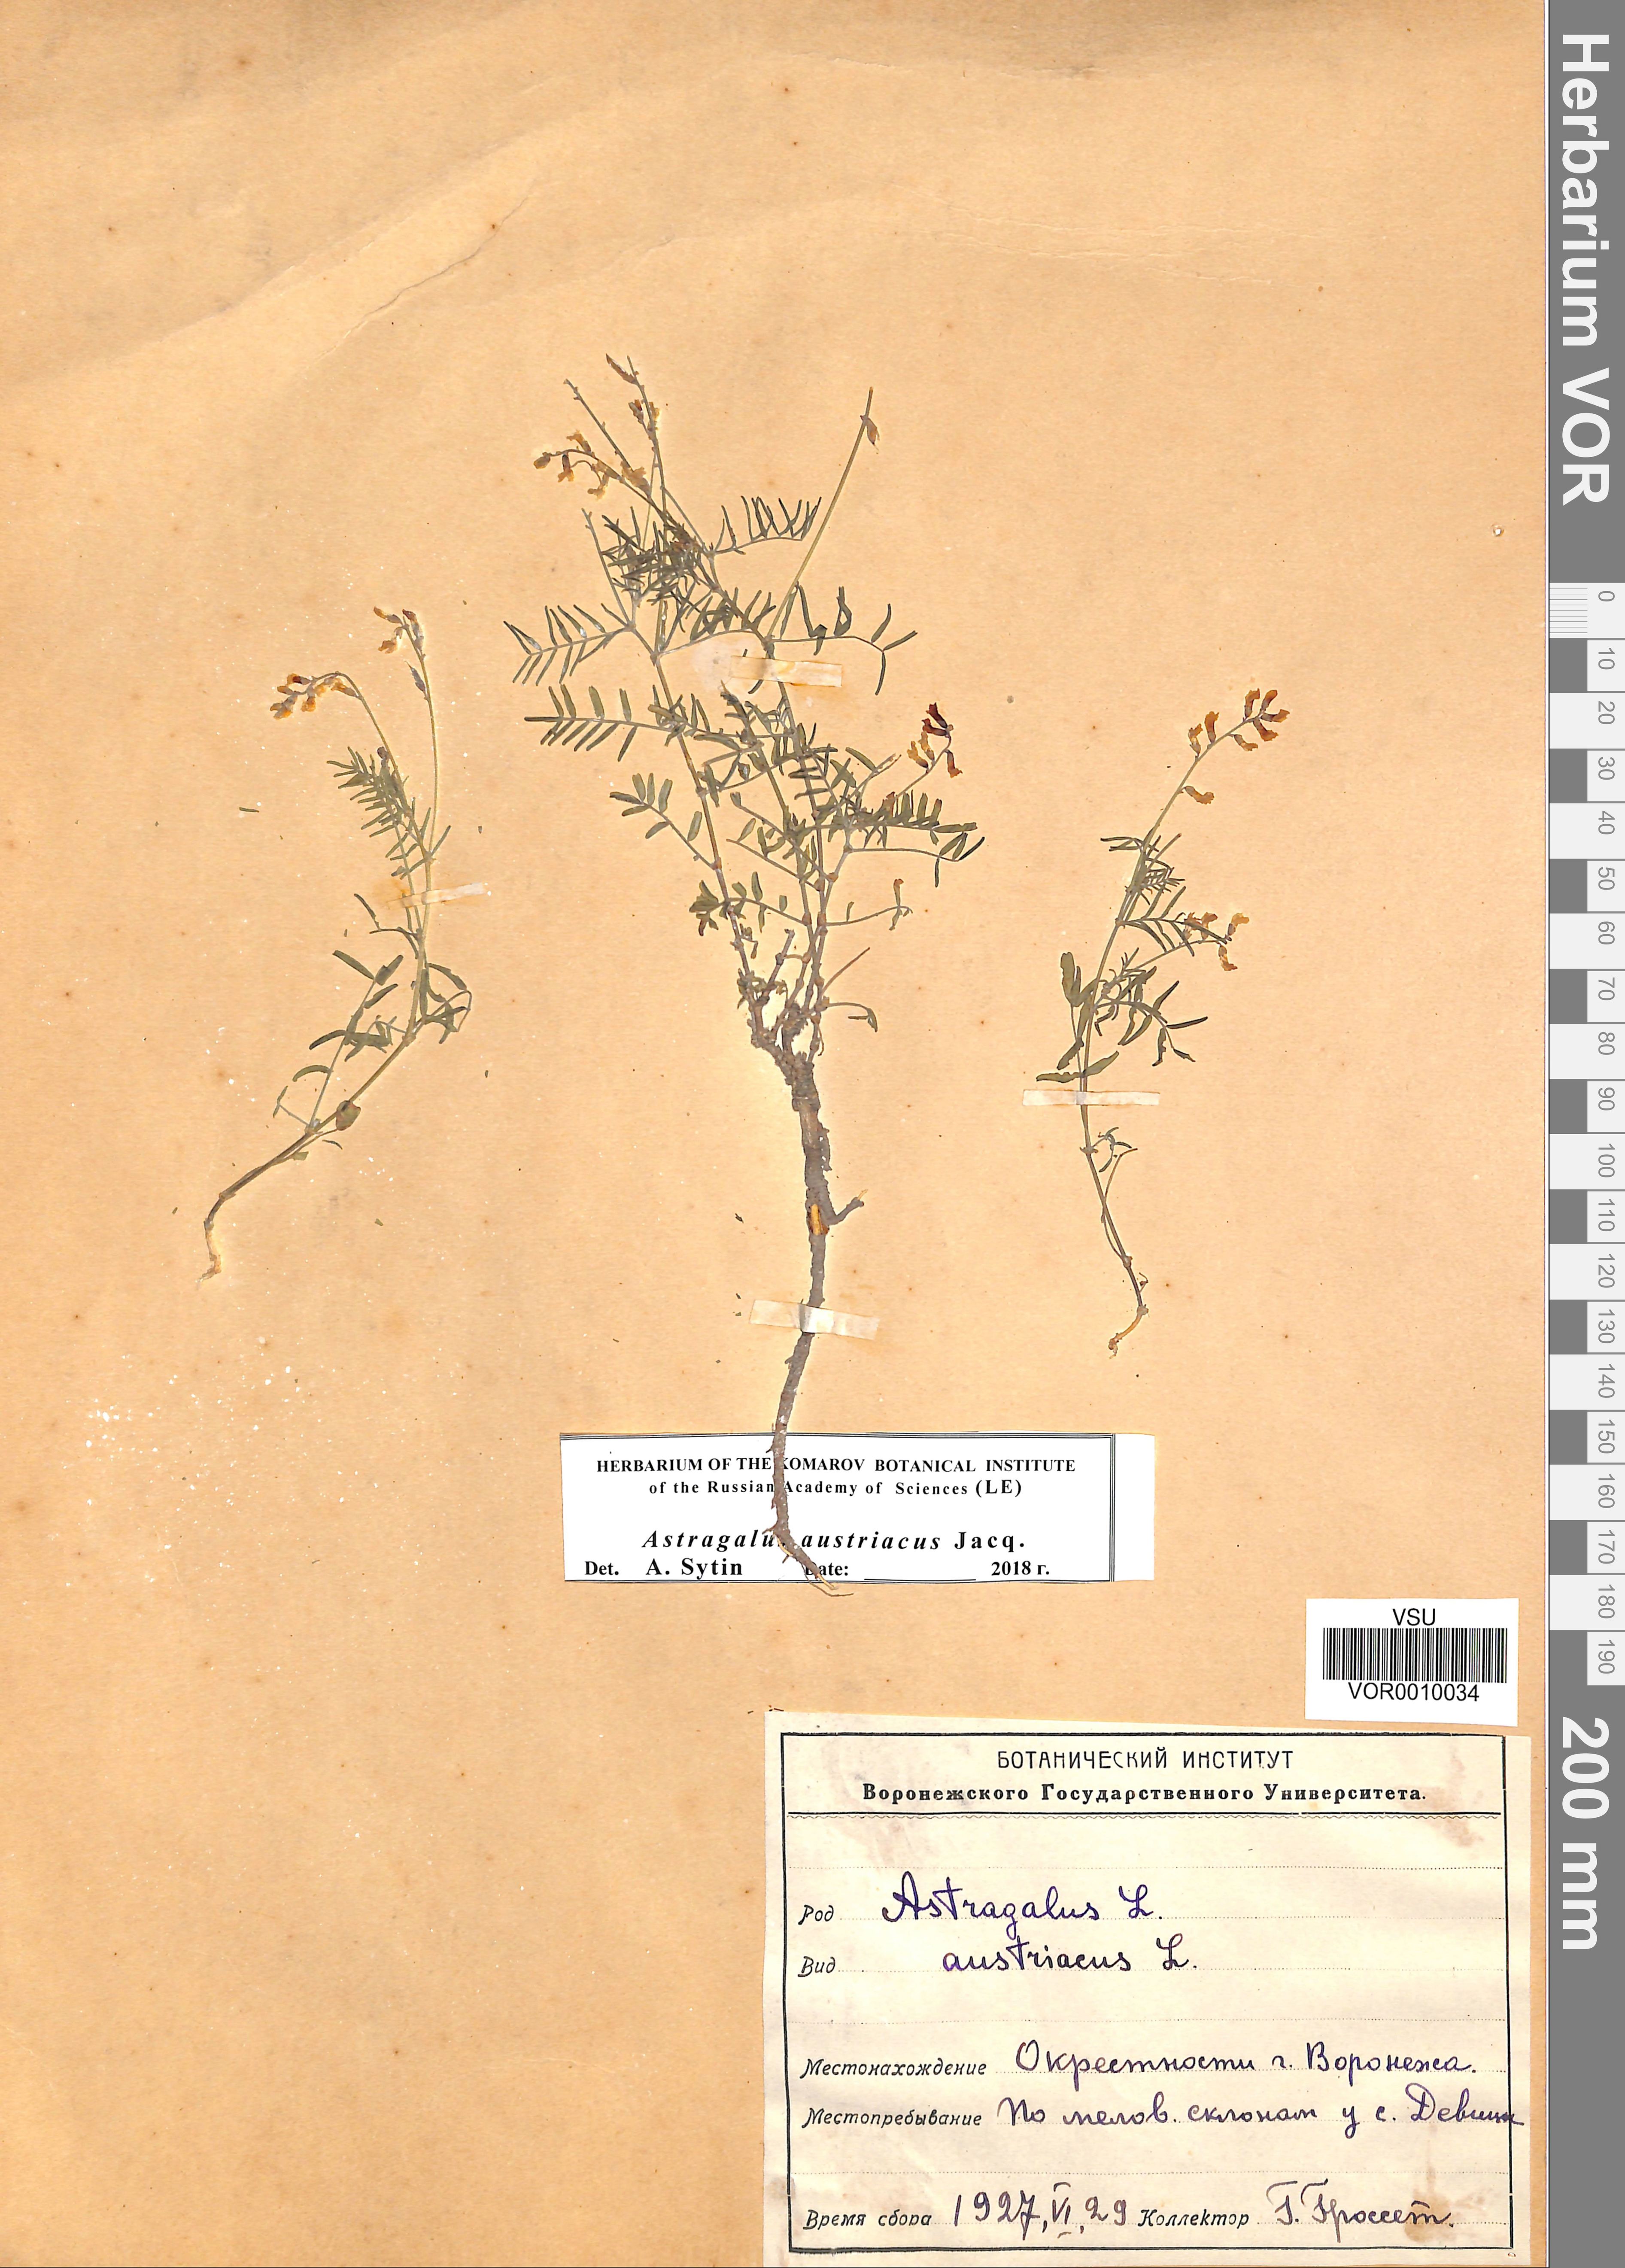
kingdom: Plantae
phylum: Tracheophyta
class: Magnoliopsida
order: Fabales
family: Fabaceae
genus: Astragalus
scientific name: Astragalus austriacus
